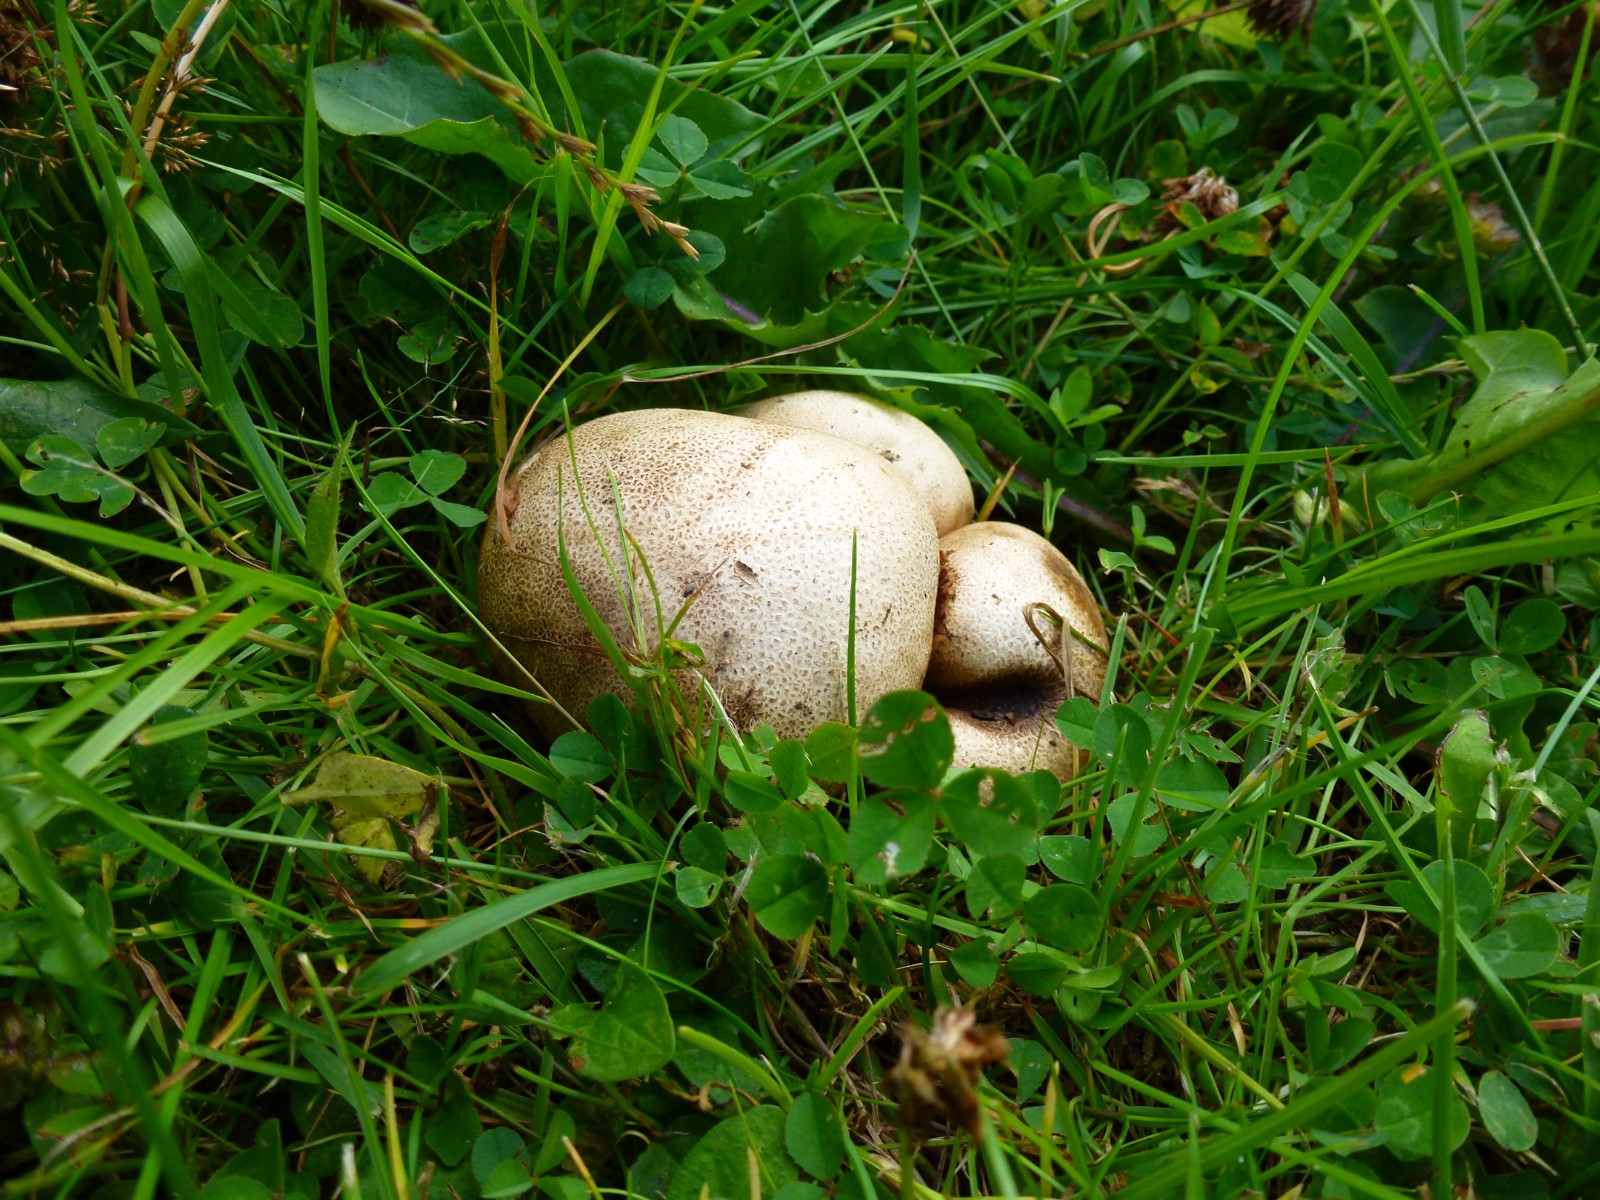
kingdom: Fungi
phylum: Basidiomycota
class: Agaricomycetes
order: Boletales
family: Sclerodermataceae
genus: Scleroderma
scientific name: Scleroderma
